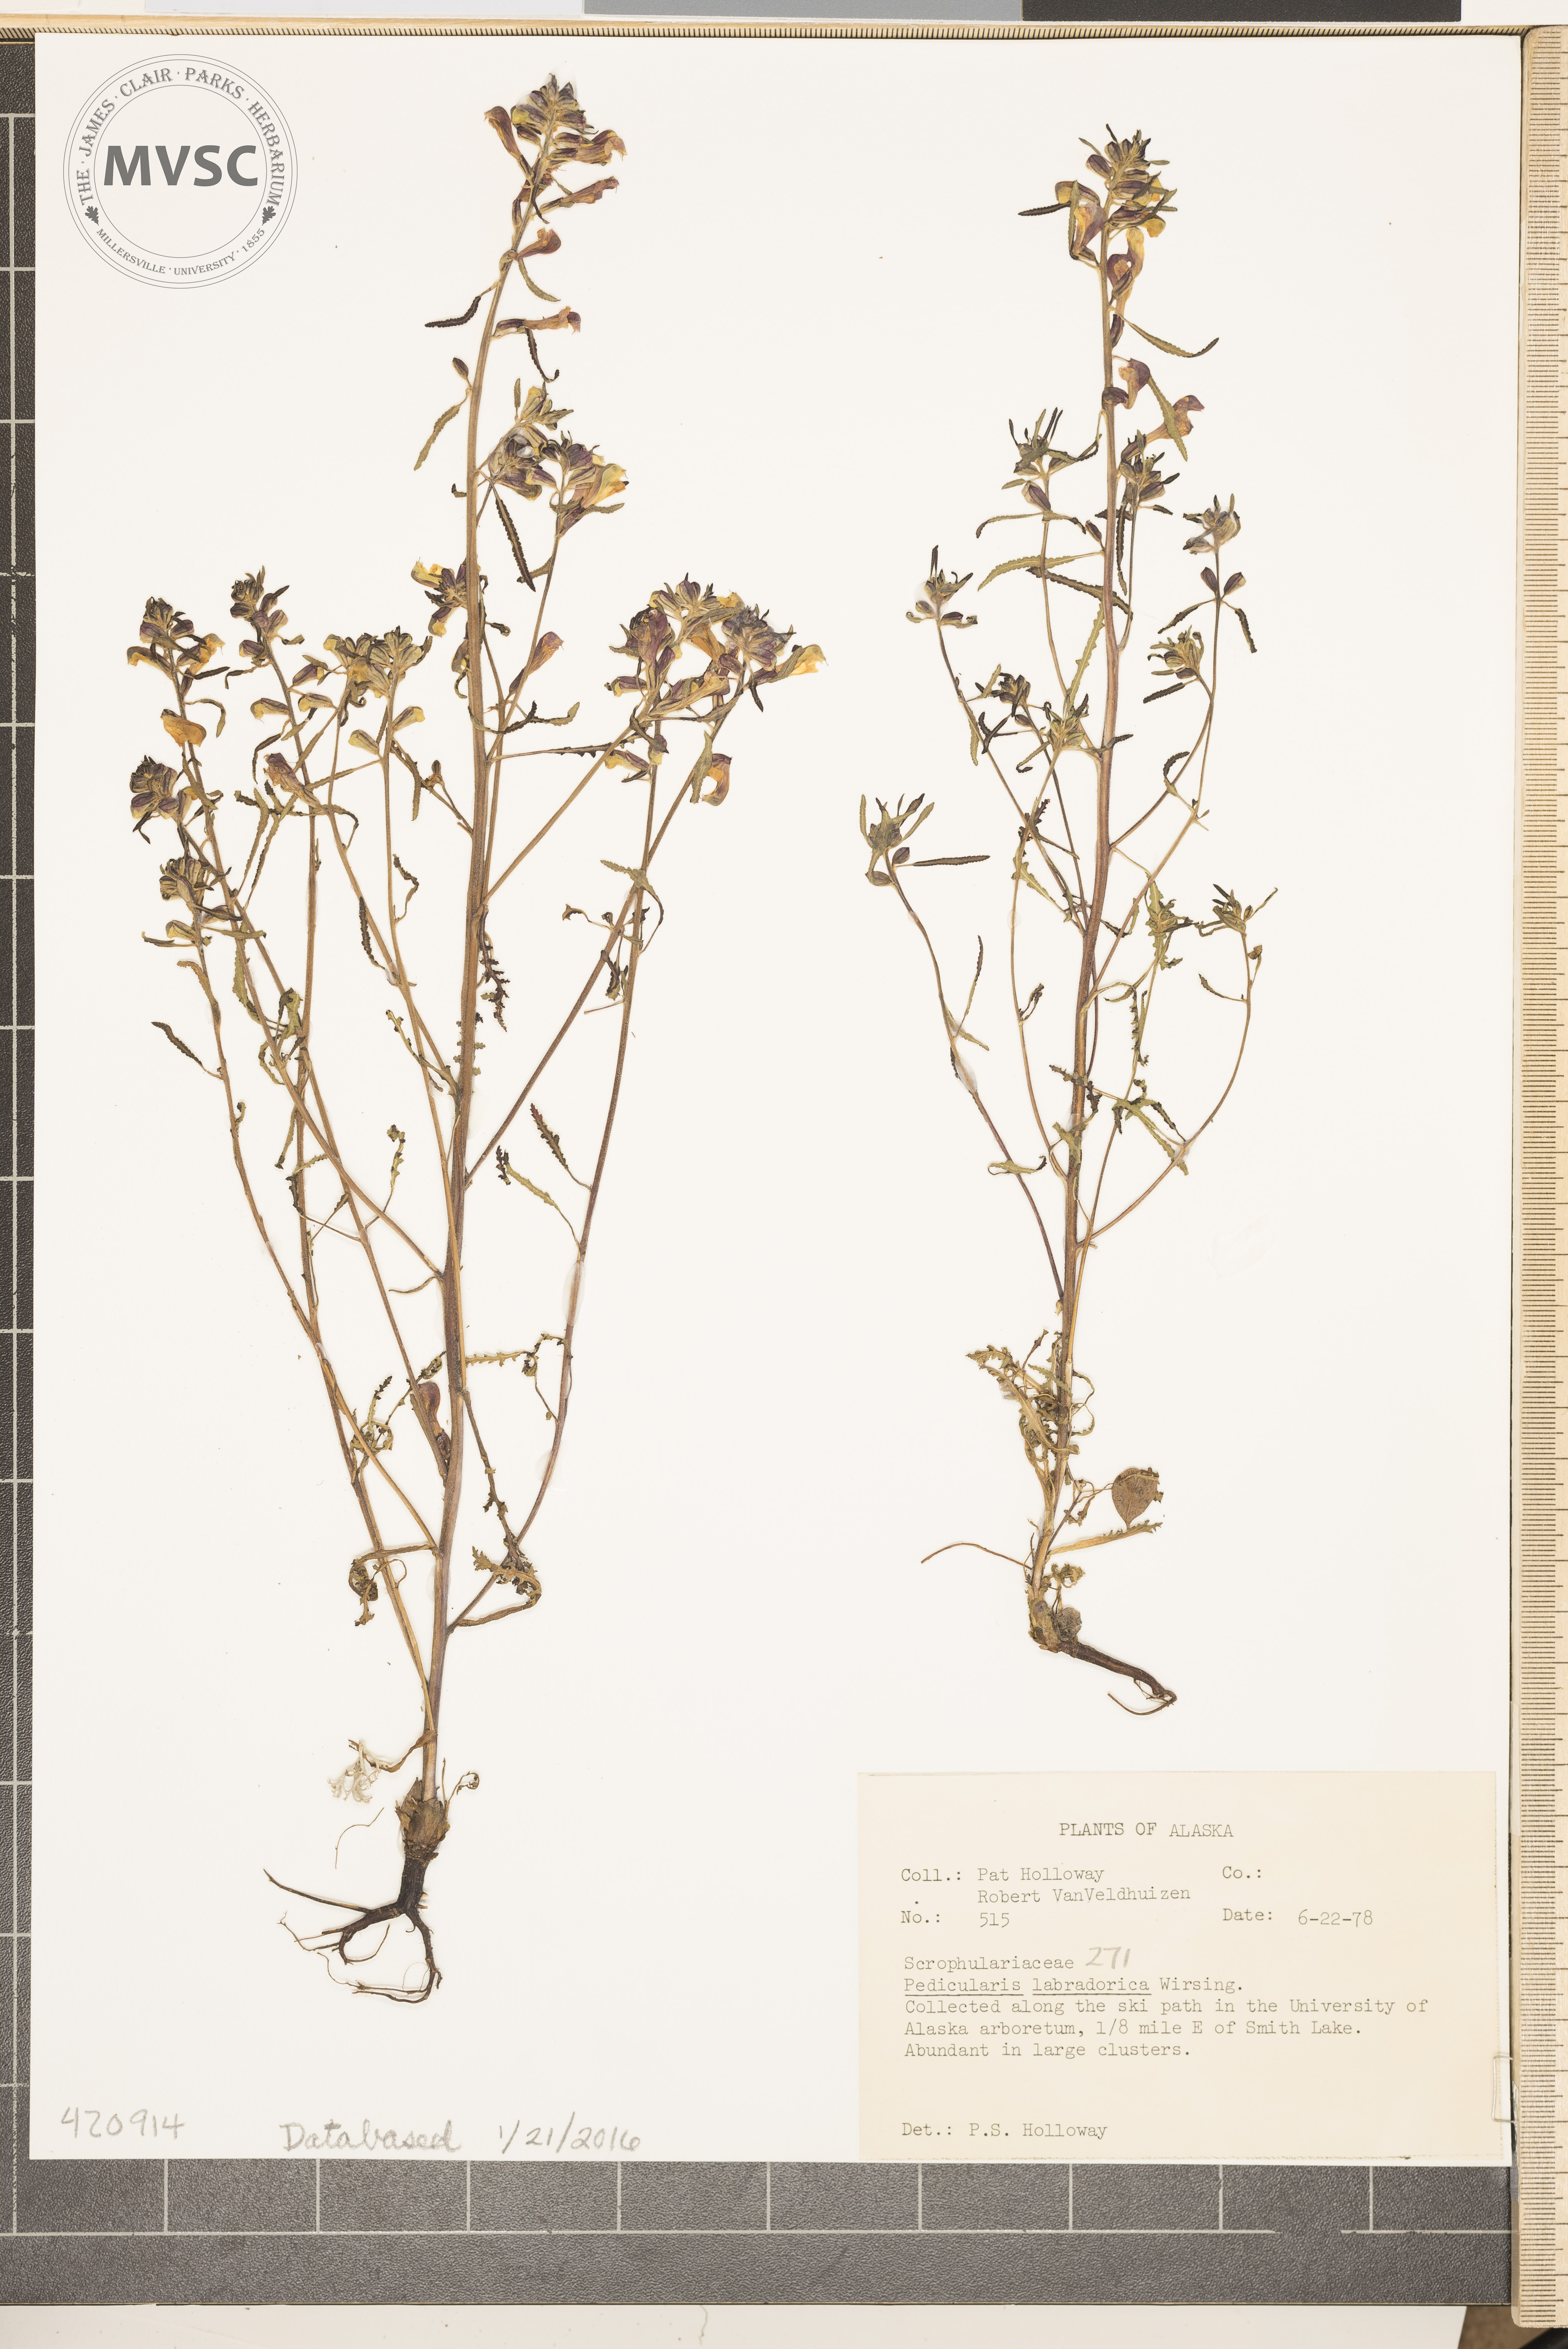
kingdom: Plantae
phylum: Tracheophyta
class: Magnoliopsida
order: Lamiales
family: Orobanchaceae
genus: Pedicularis
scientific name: Pedicularis labradorica
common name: Labrador Lousewort
